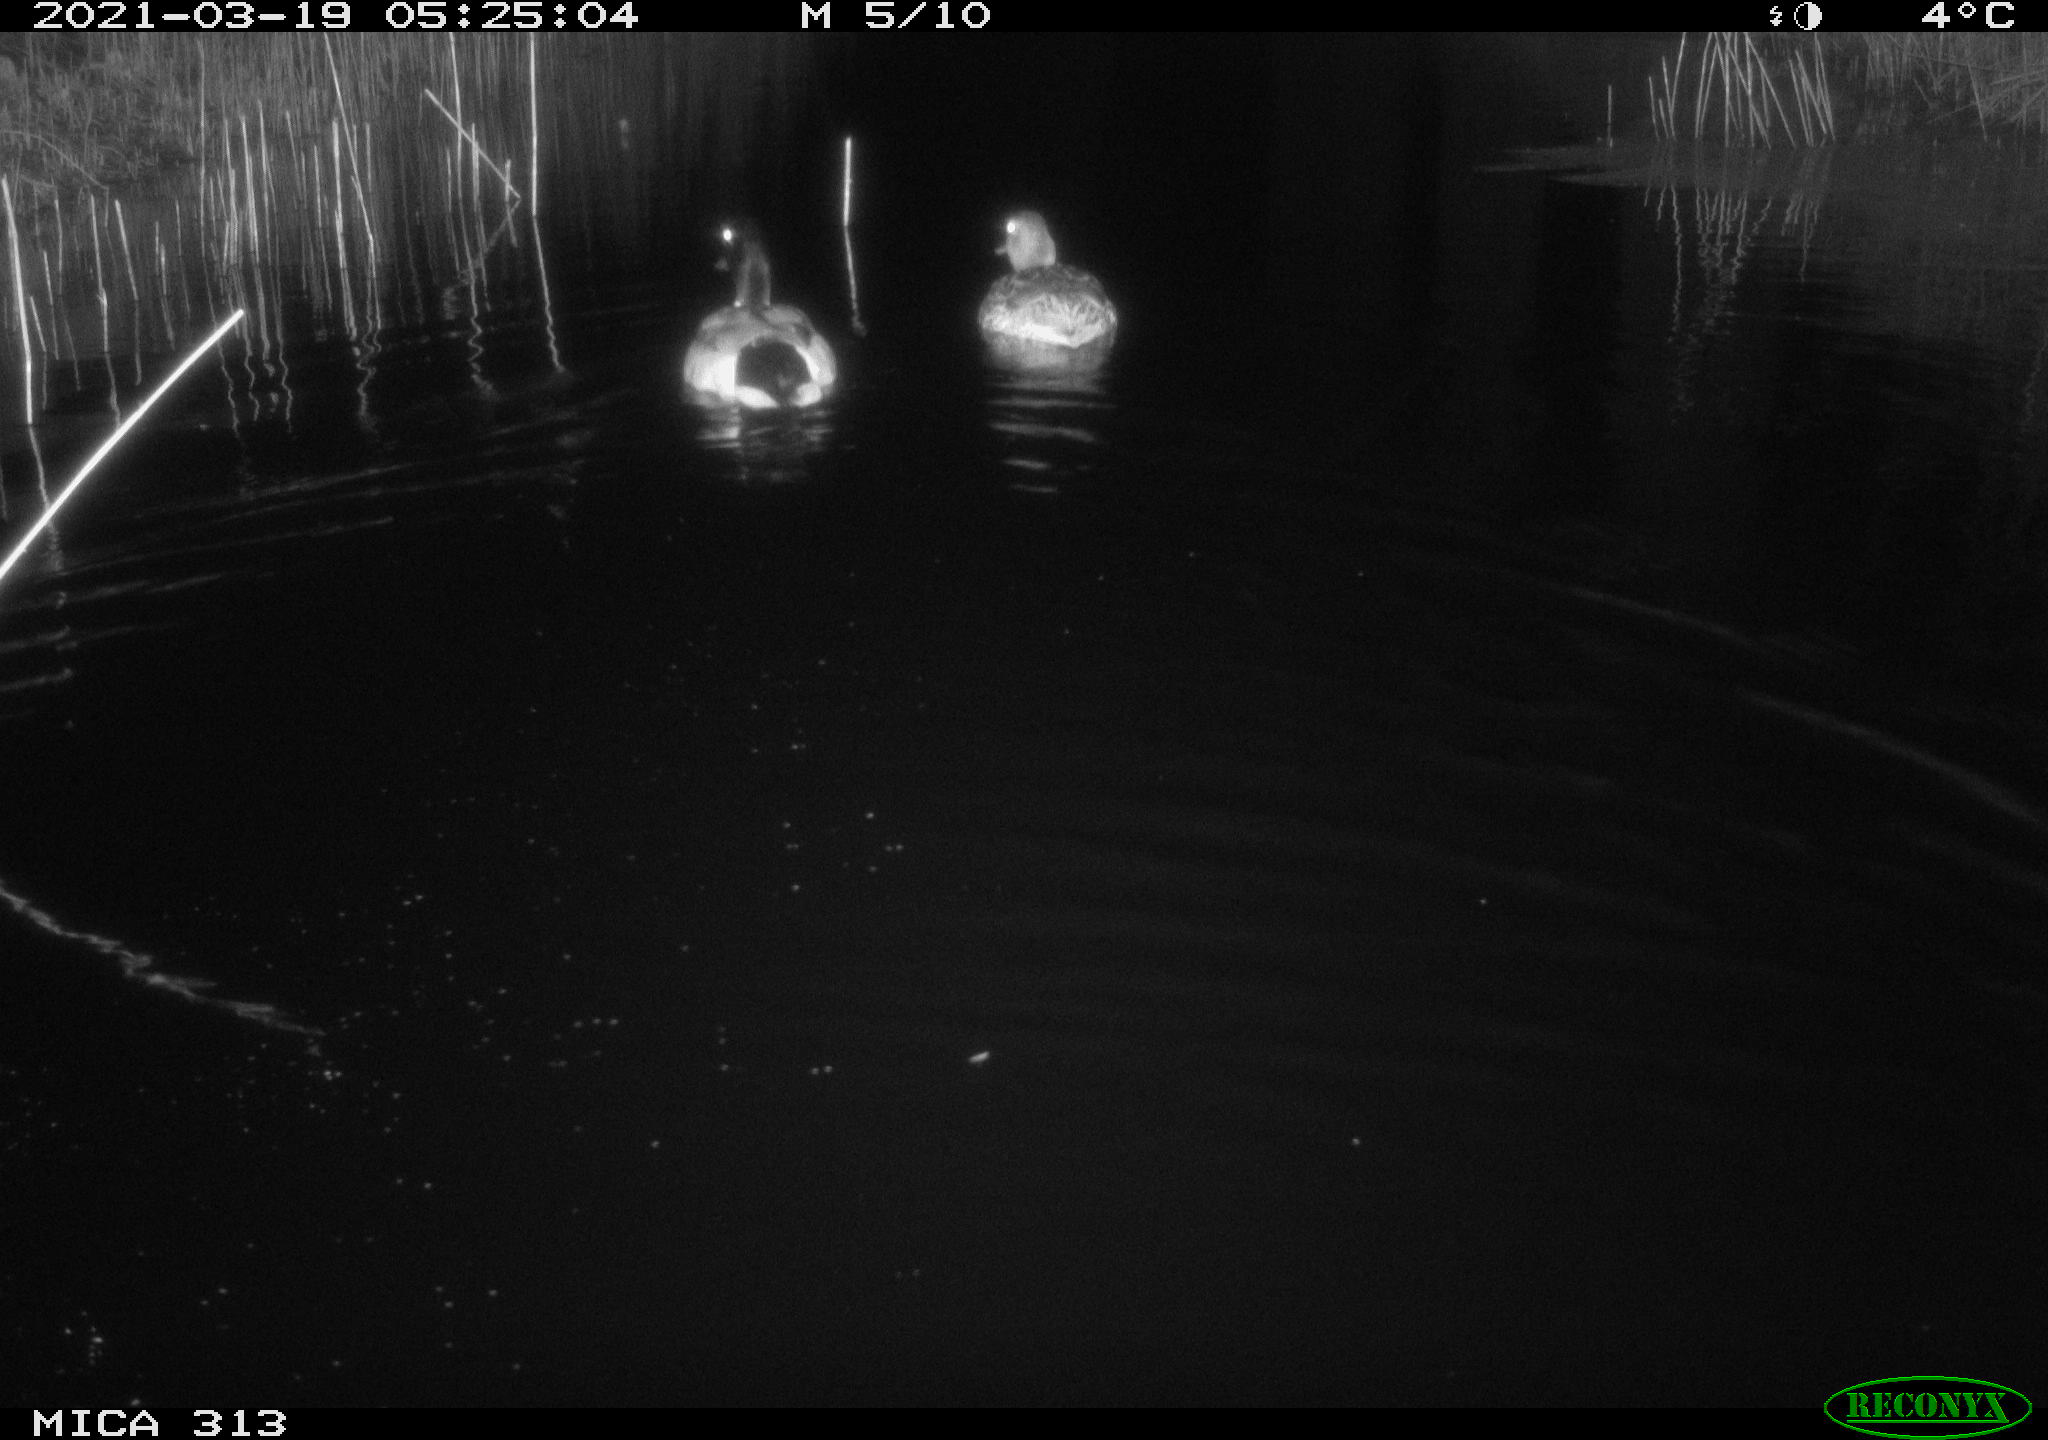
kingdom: Animalia
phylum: Chordata
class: Aves
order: Anseriformes
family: Anatidae
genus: Anas
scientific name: Anas platyrhynchos
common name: Mallard
